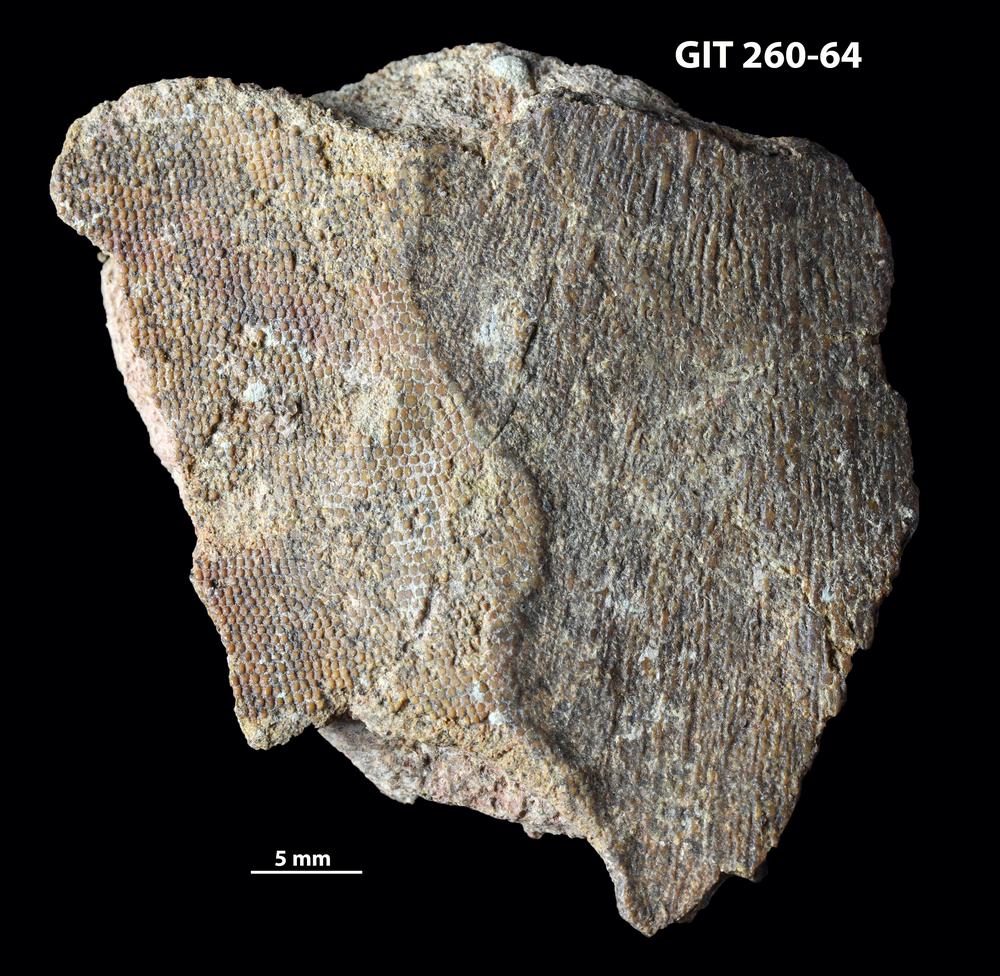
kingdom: Animalia
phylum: Chordata
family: Homostiidae
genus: Homostius
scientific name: Homostius
